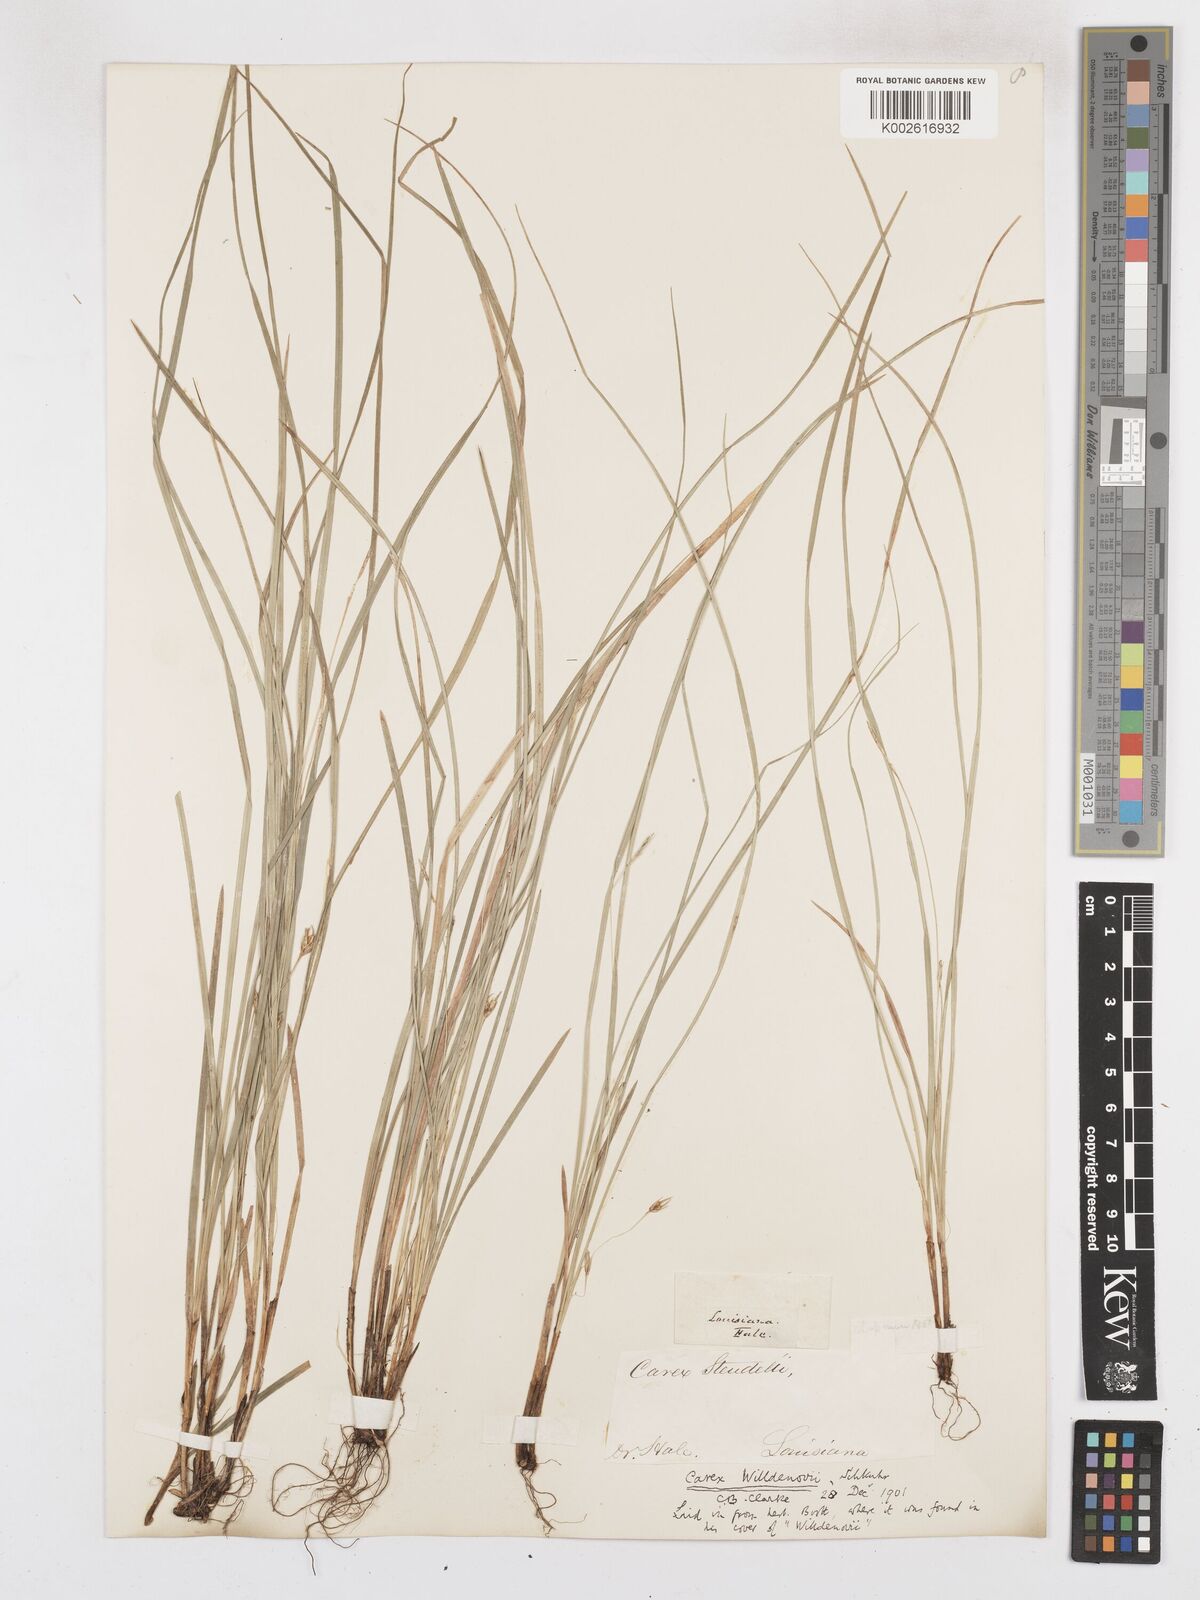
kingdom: Plantae
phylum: Tracheophyta
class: Liliopsida
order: Poales
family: Cyperaceae
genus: Carex
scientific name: Carex willdenowii
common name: Willdenow's sedge
